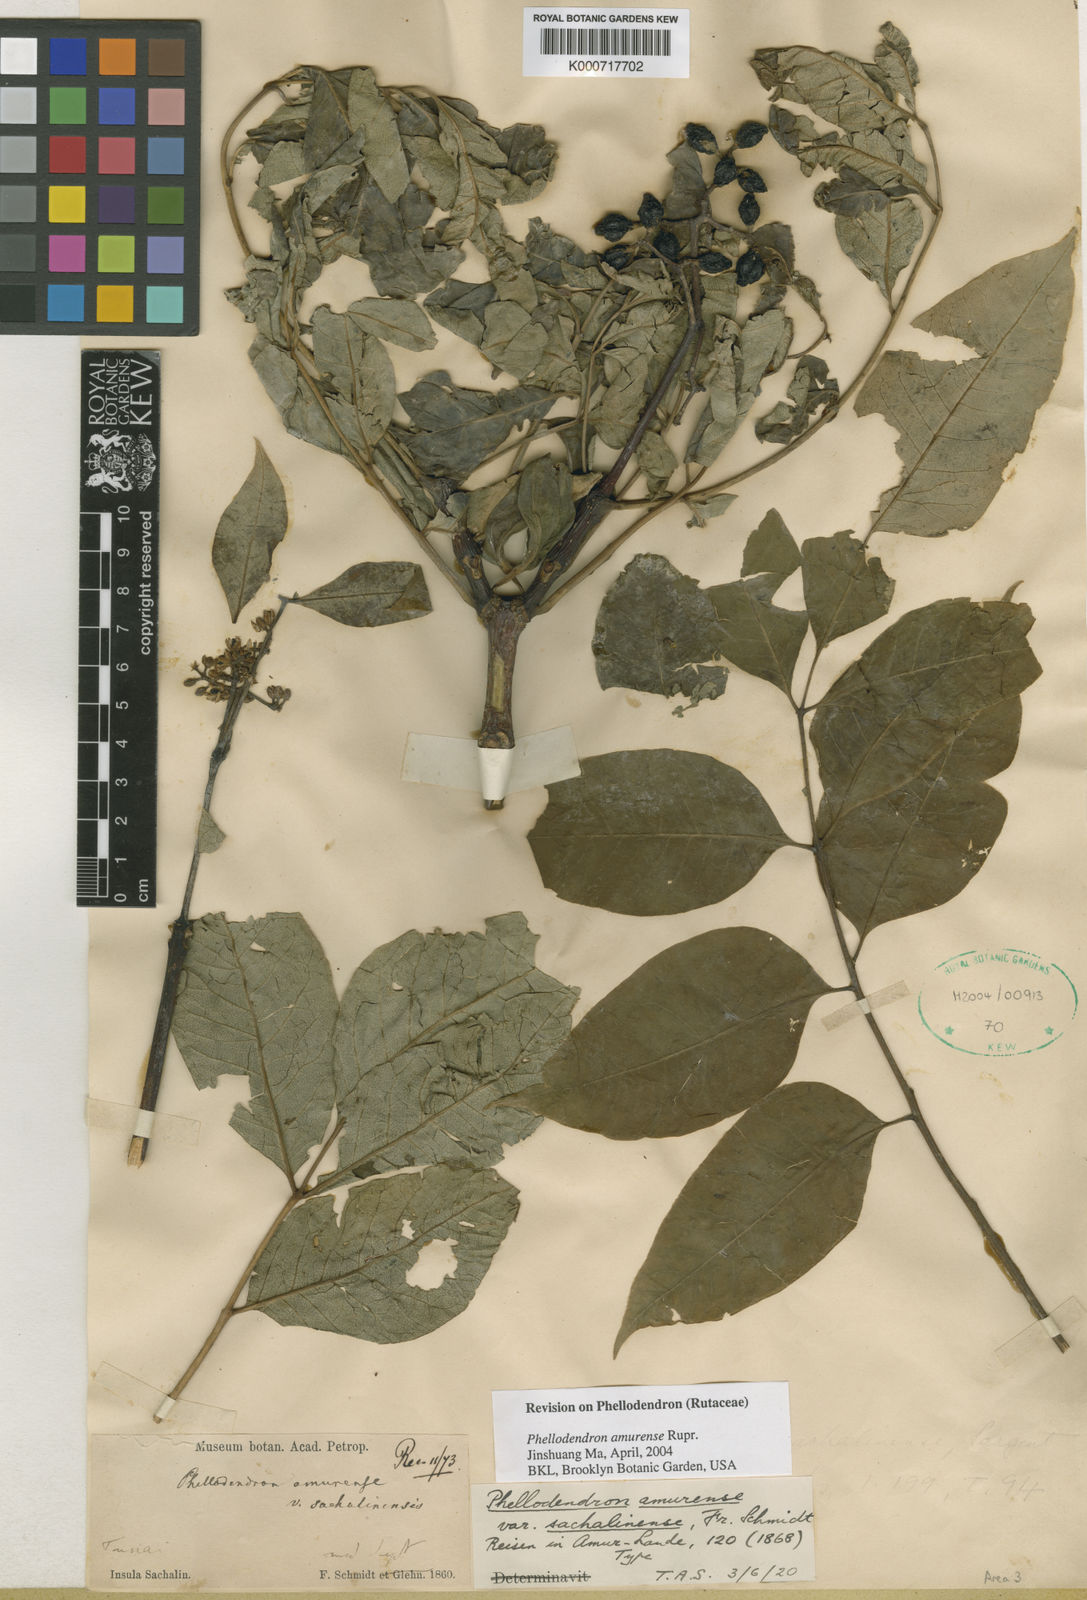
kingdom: Plantae
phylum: Tracheophyta
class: Magnoliopsida
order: Sapindales
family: Rutaceae
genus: Phellodendron
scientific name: Phellodendron amurense
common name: Amur corktree
